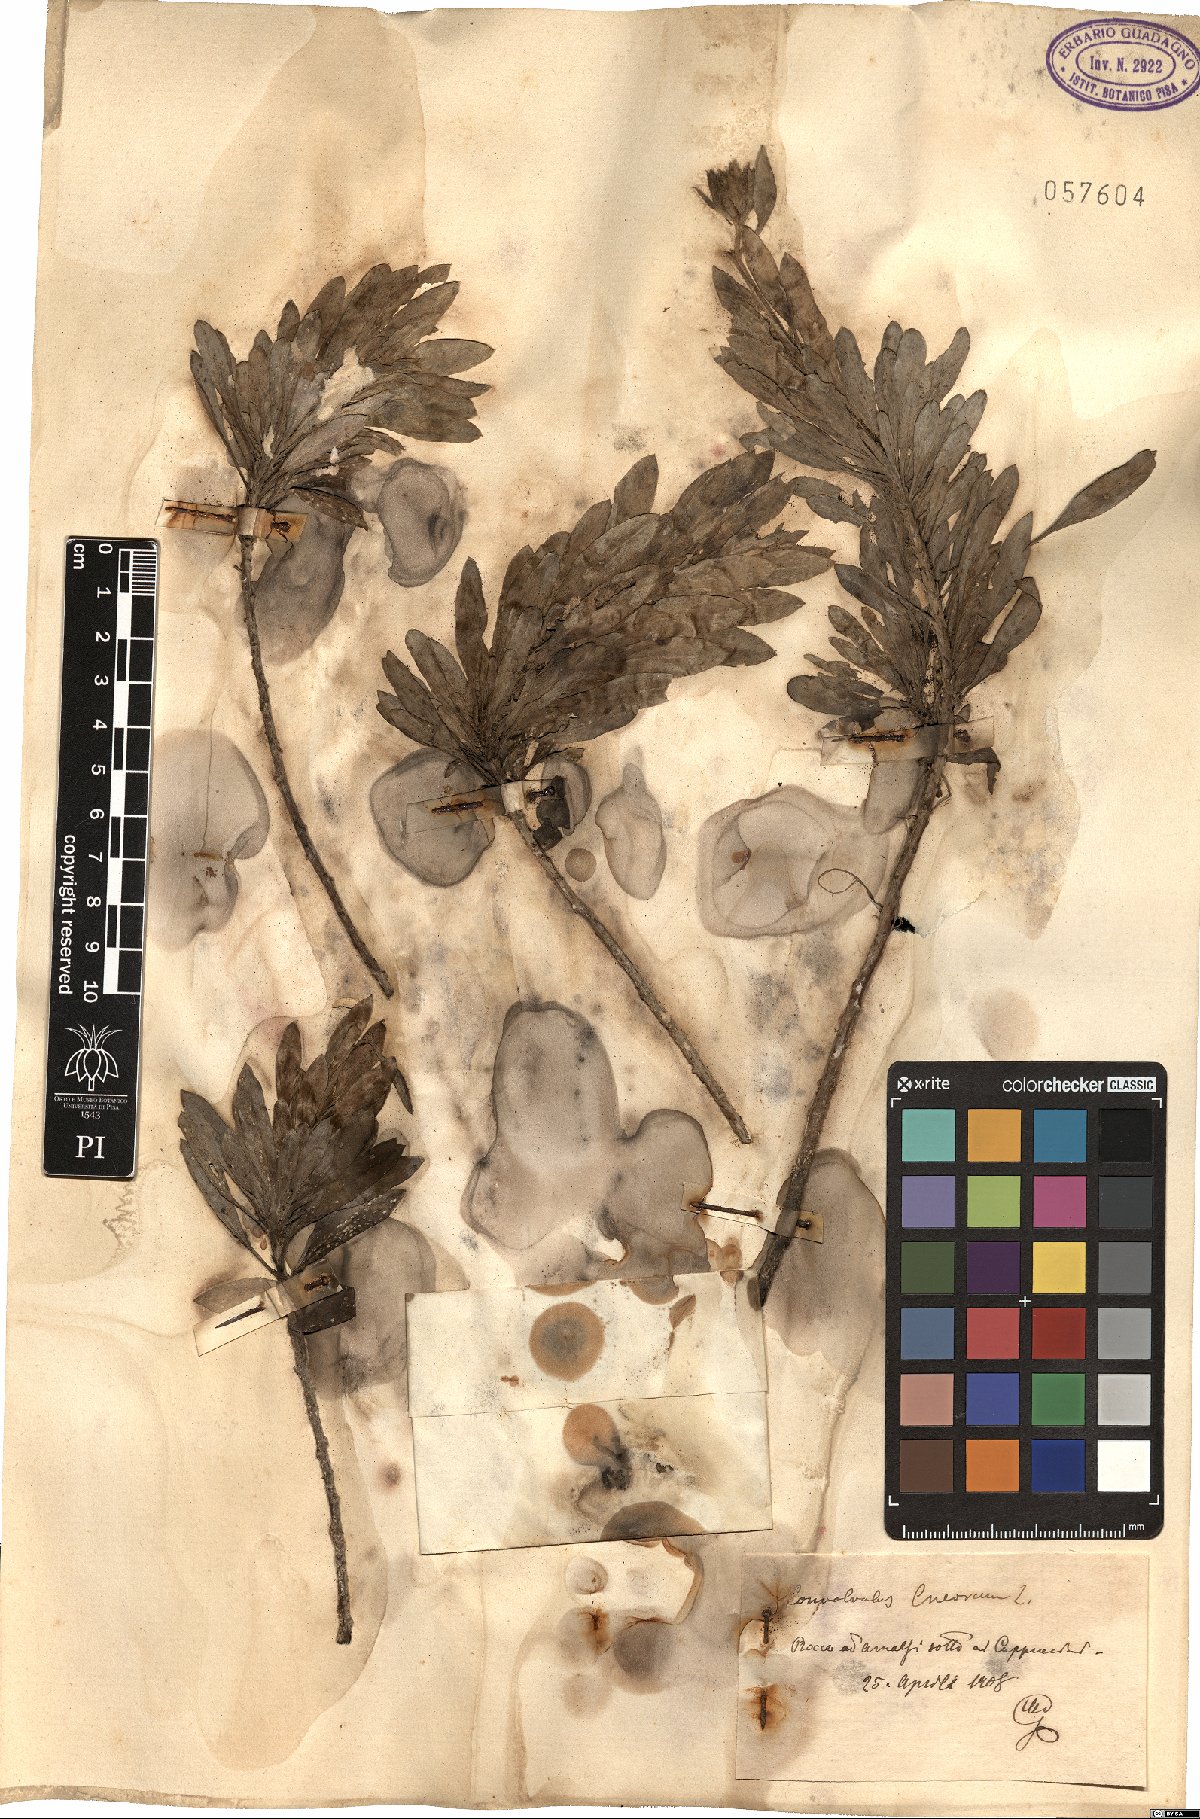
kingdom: Plantae
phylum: Tracheophyta
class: Magnoliopsida
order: Solanales
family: Convolvulaceae
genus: Convolvulus
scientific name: Convolvulus cneorum
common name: Silverbush
